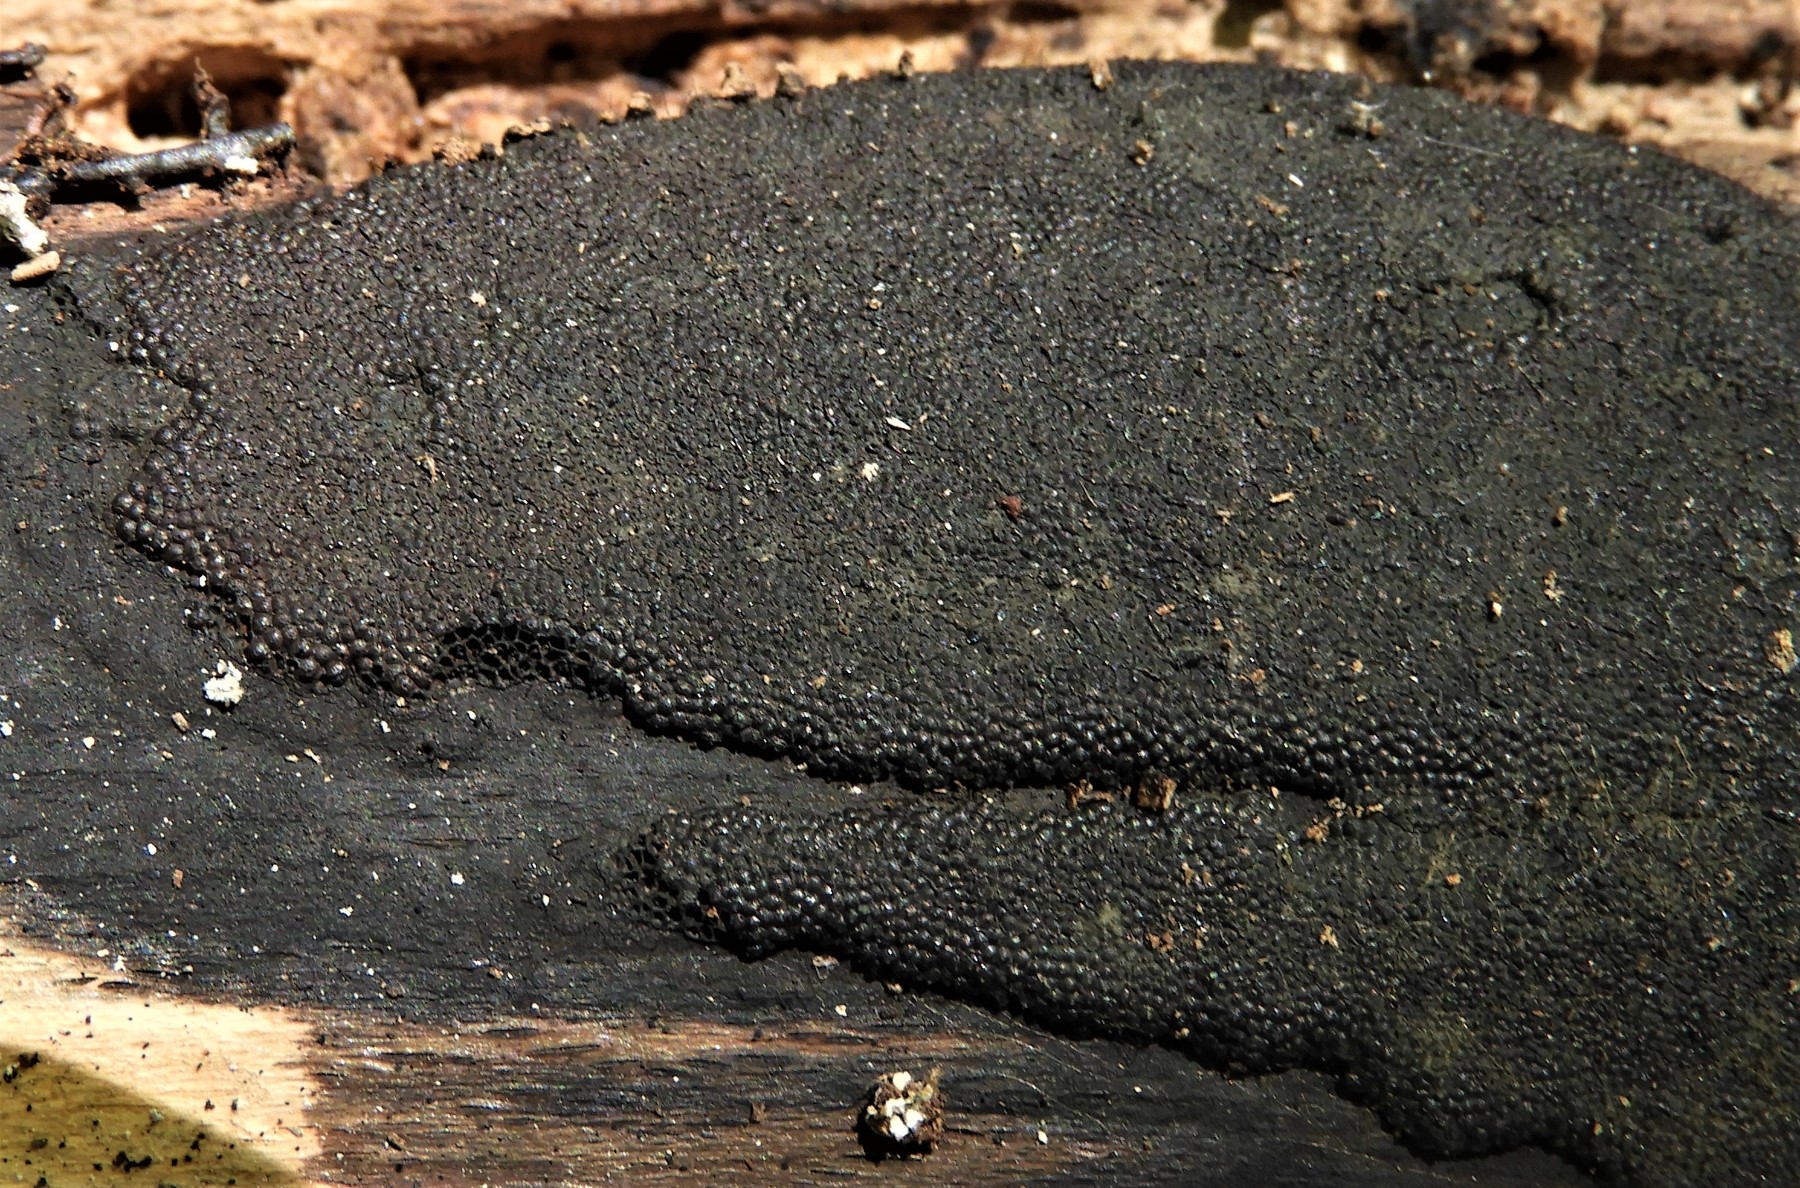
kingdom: Fungi
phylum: Ascomycota
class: Sordariomycetes
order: Xylariales
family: Hypoxylaceae
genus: Hypoxylon
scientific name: Hypoxylon
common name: kulbær
